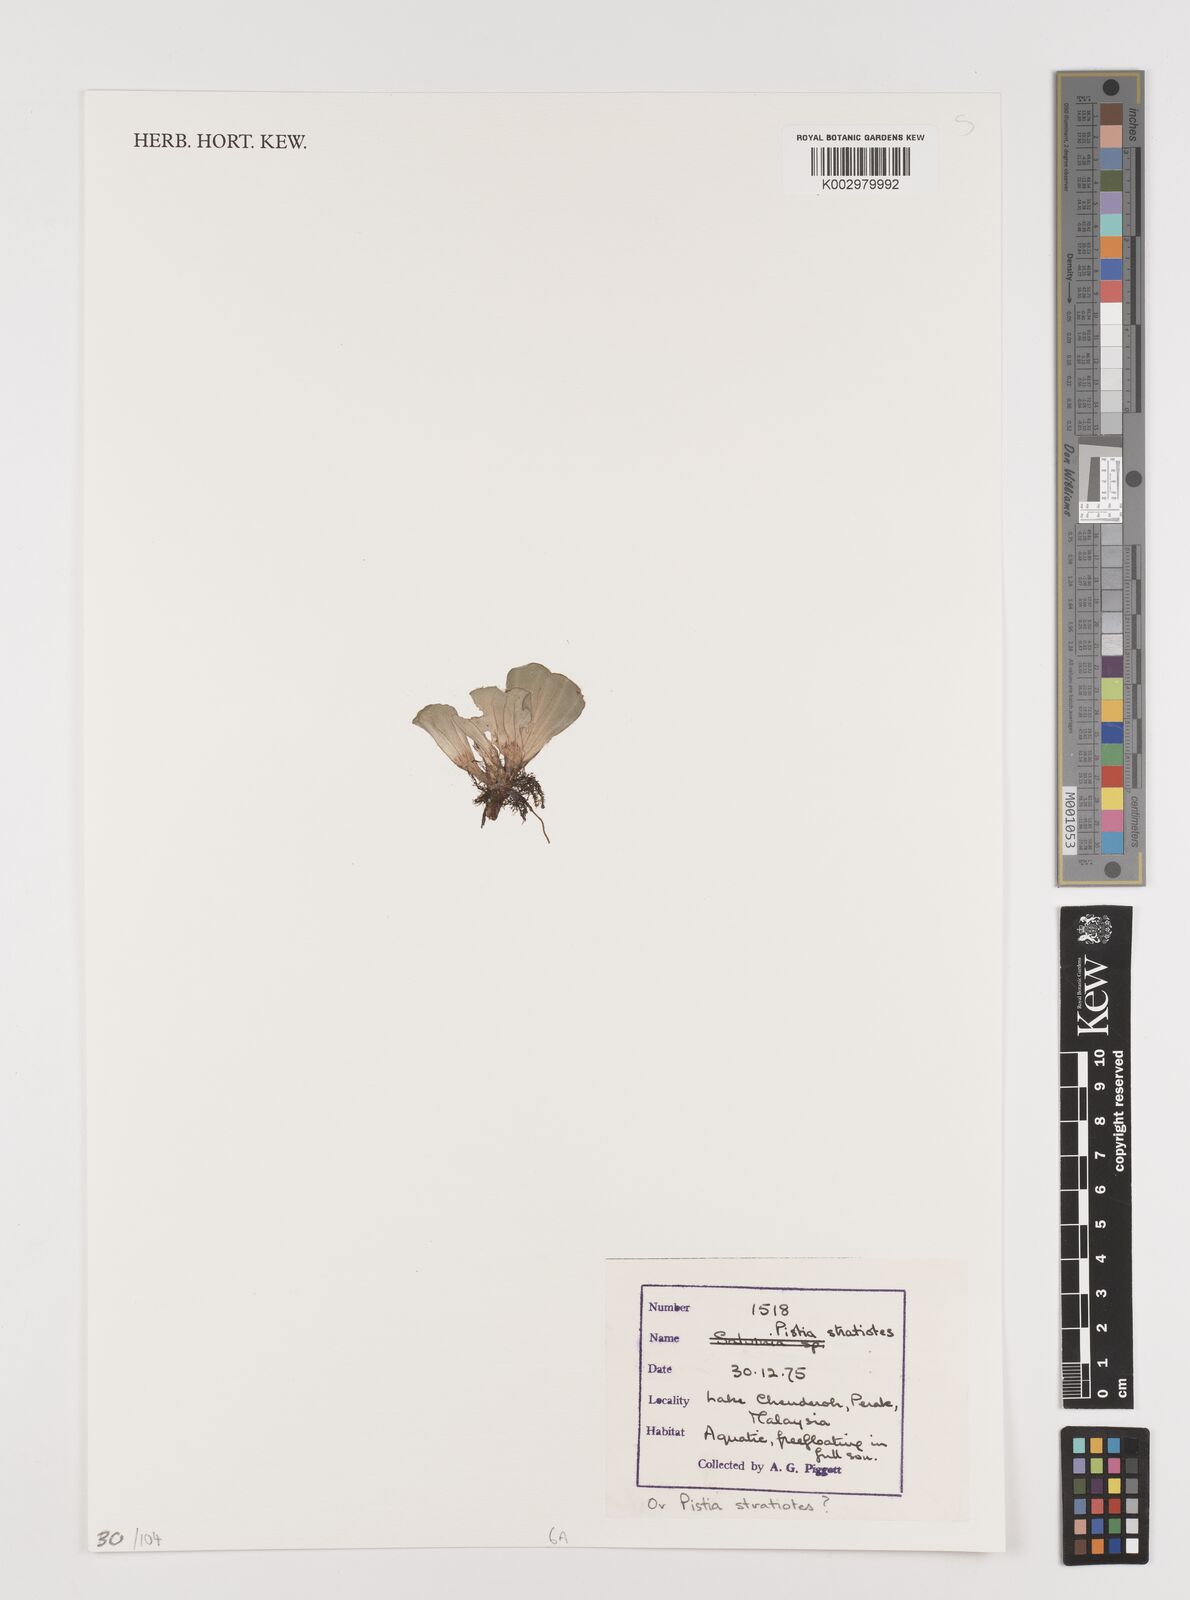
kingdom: Plantae
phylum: Tracheophyta
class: Liliopsida
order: Alismatales
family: Araceae
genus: Pistia
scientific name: Pistia stratiotes
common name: Water lettuce
